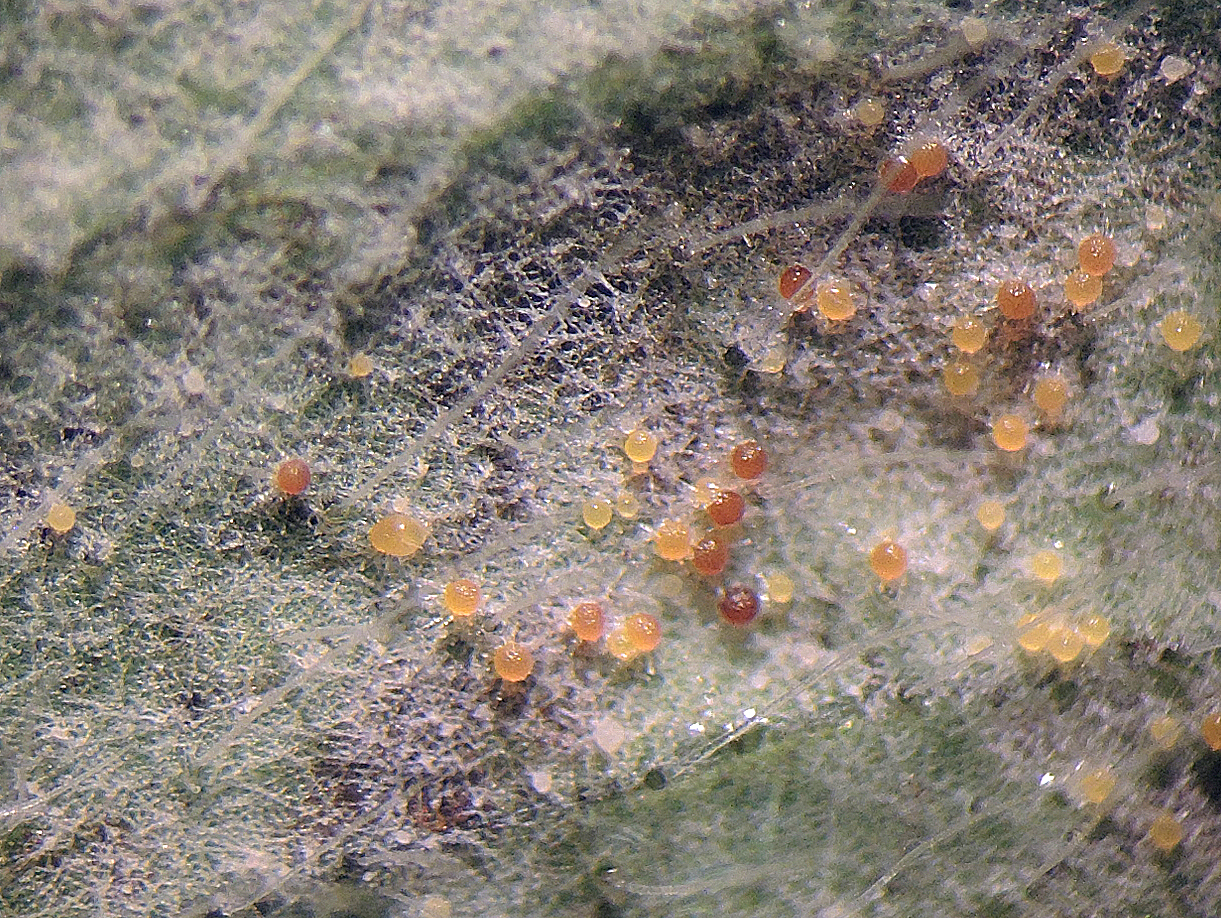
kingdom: Fungi
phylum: Ascomycota
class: Leotiomycetes
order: Helotiales
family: Erysiphaceae
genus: Erysiphe
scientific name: Erysiphe pisi
